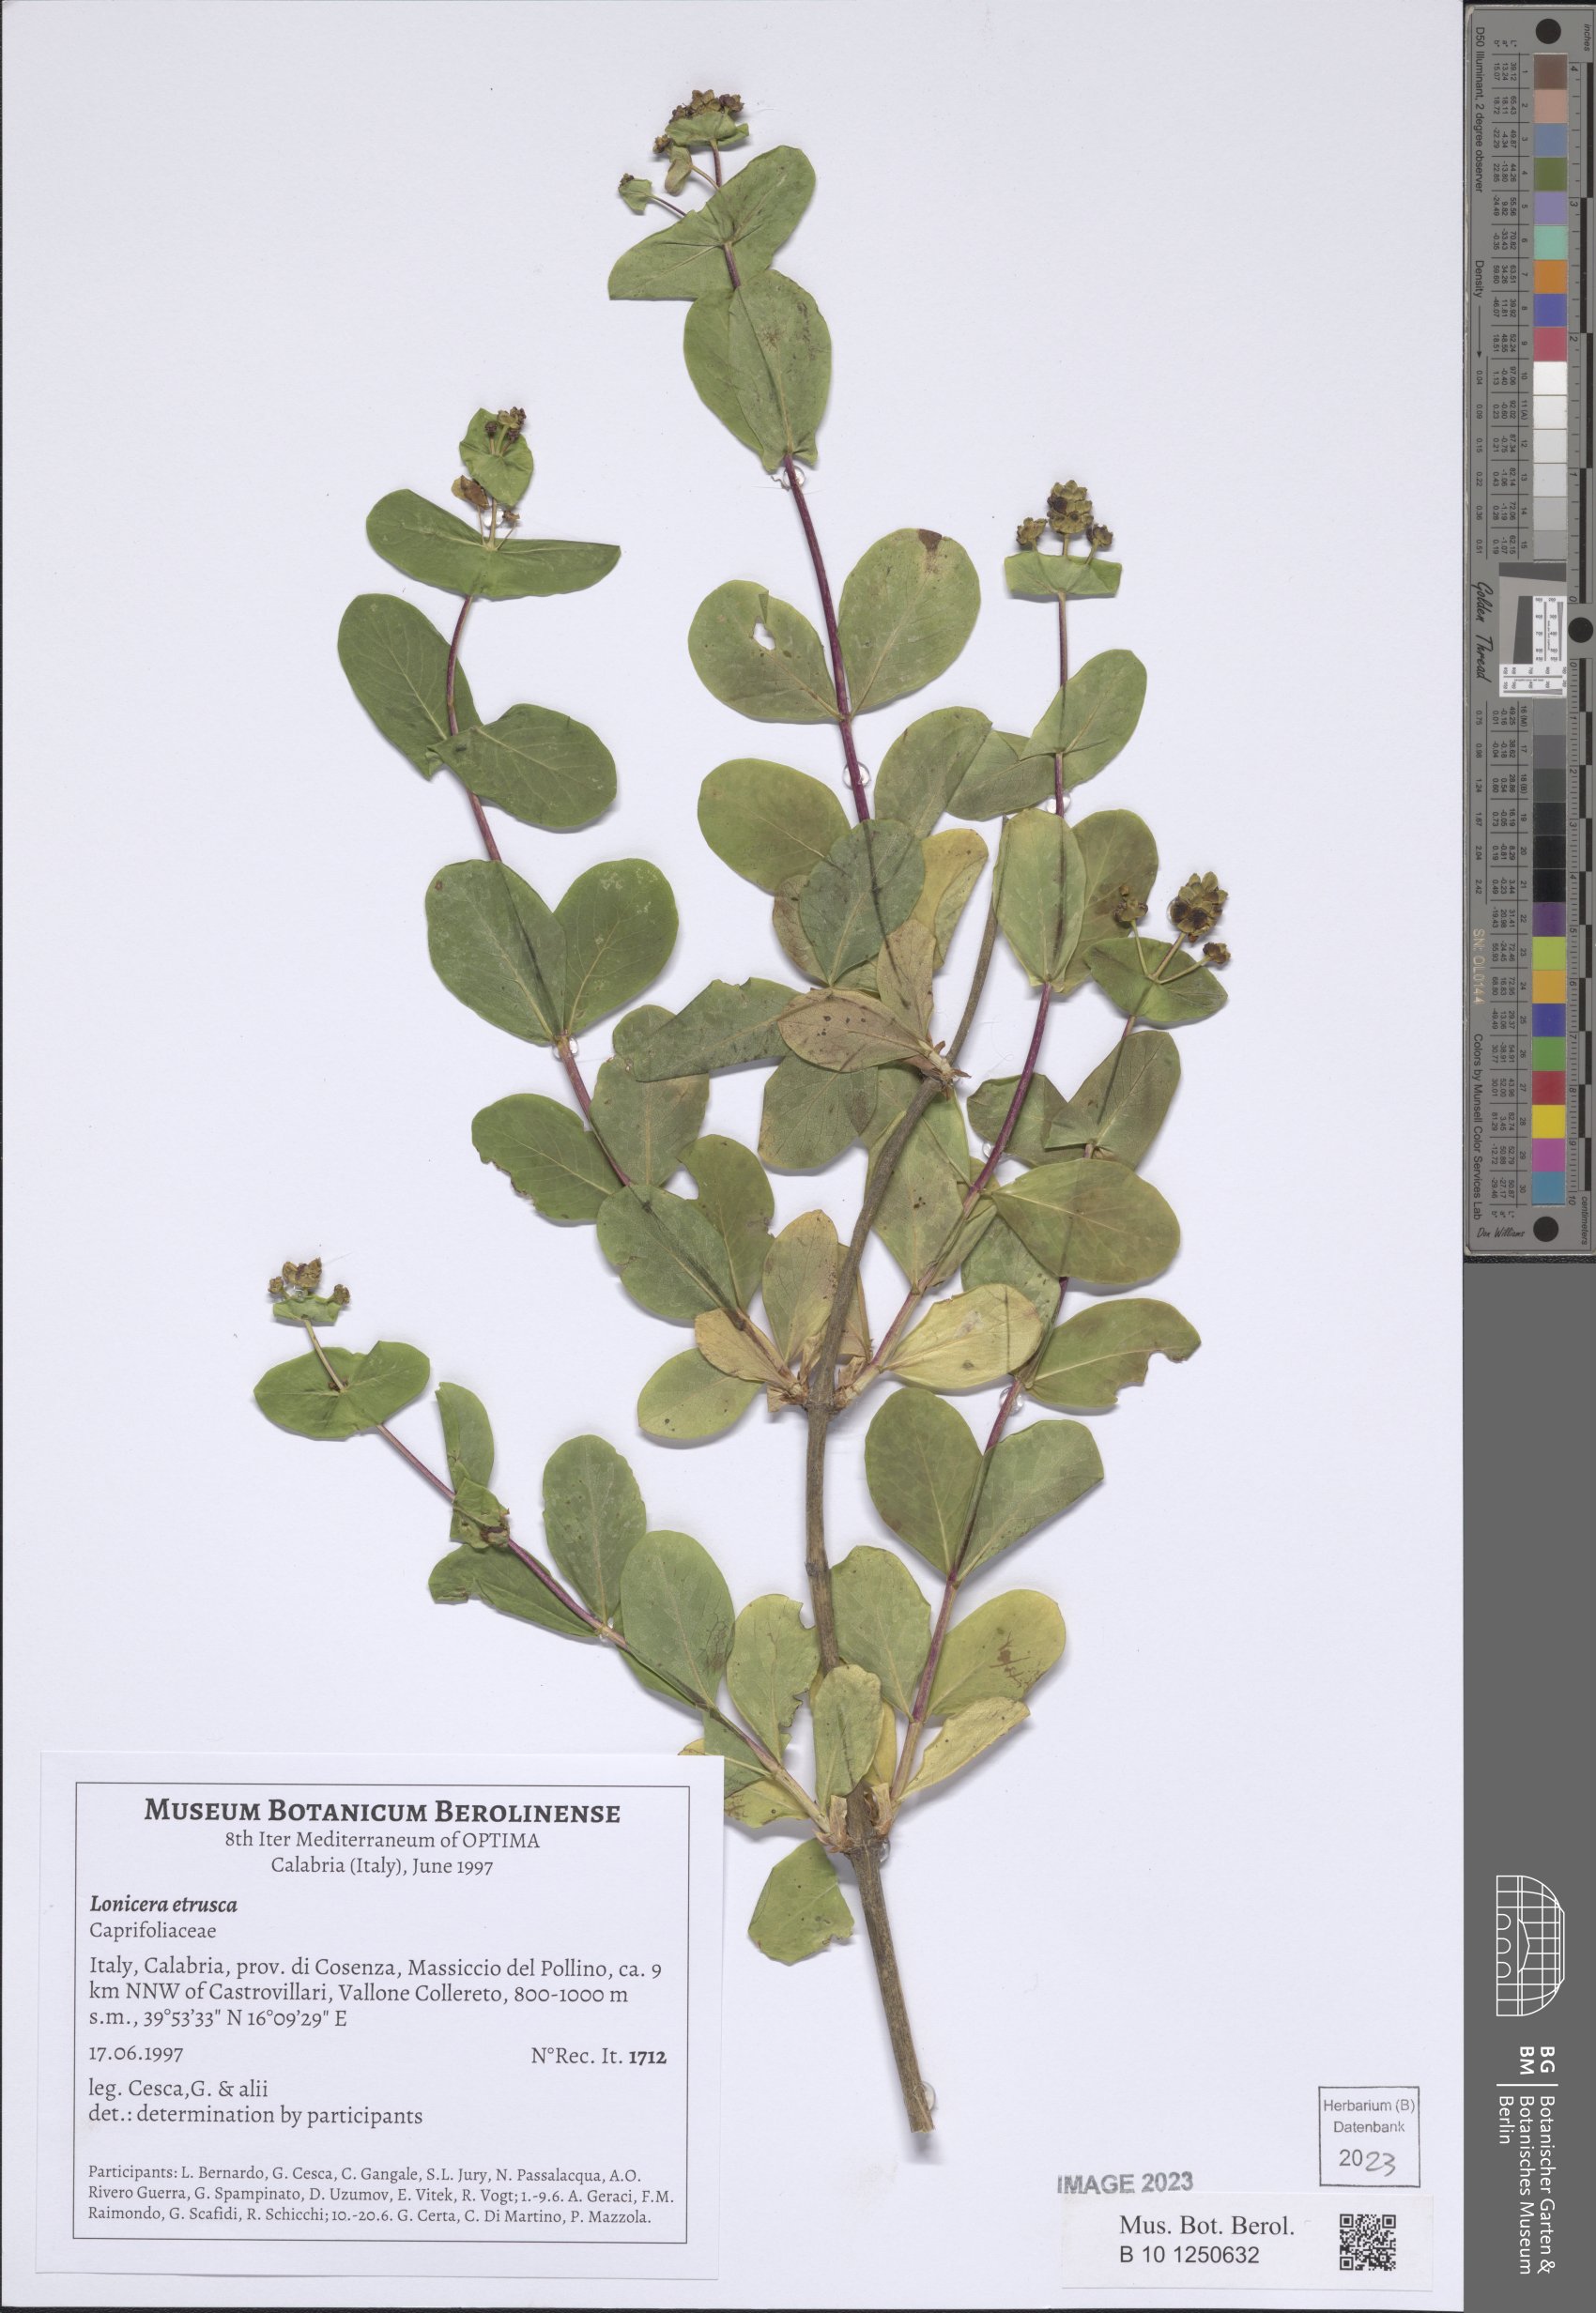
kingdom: Plantae
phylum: Tracheophyta
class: Magnoliopsida
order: Dipsacales
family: Caprifoliaceae
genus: Lonicera
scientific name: Lonicera etrusca
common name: Etruscan honeysuckle
